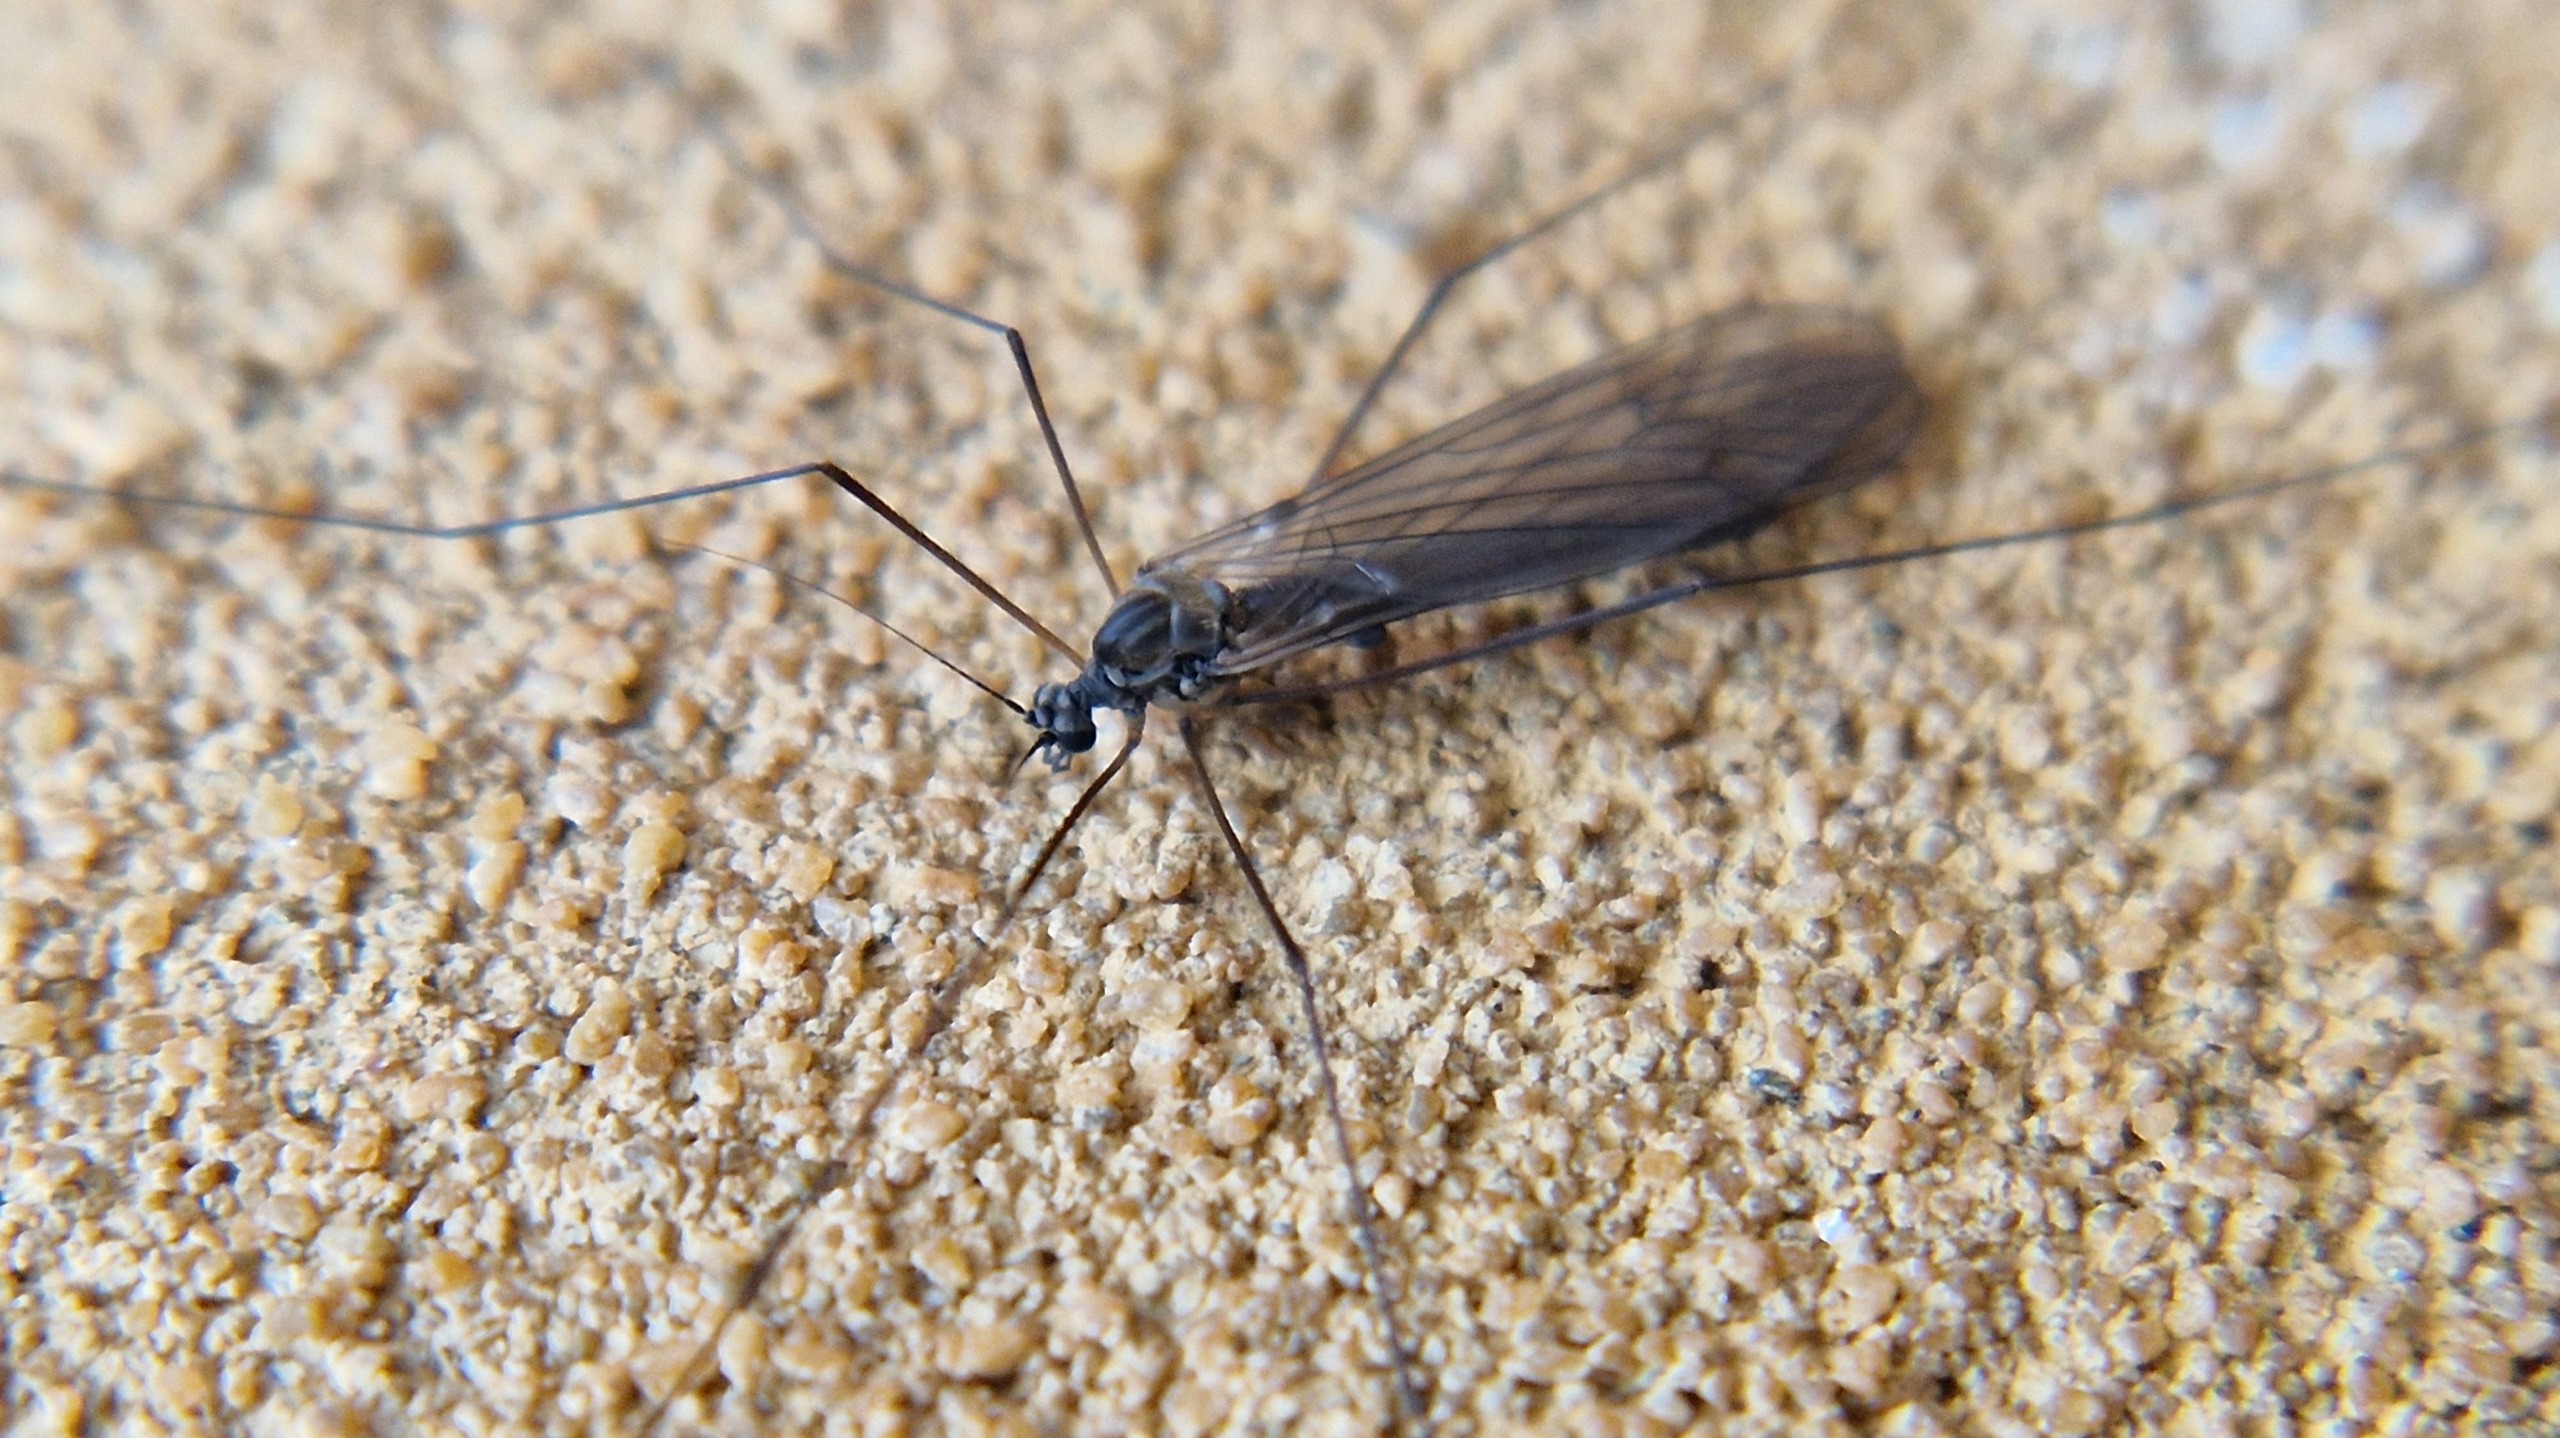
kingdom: Animalia
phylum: Arthropoda
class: Insecta
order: Diptera
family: Trichoceridae
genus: Trichocera
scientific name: Trichocera
